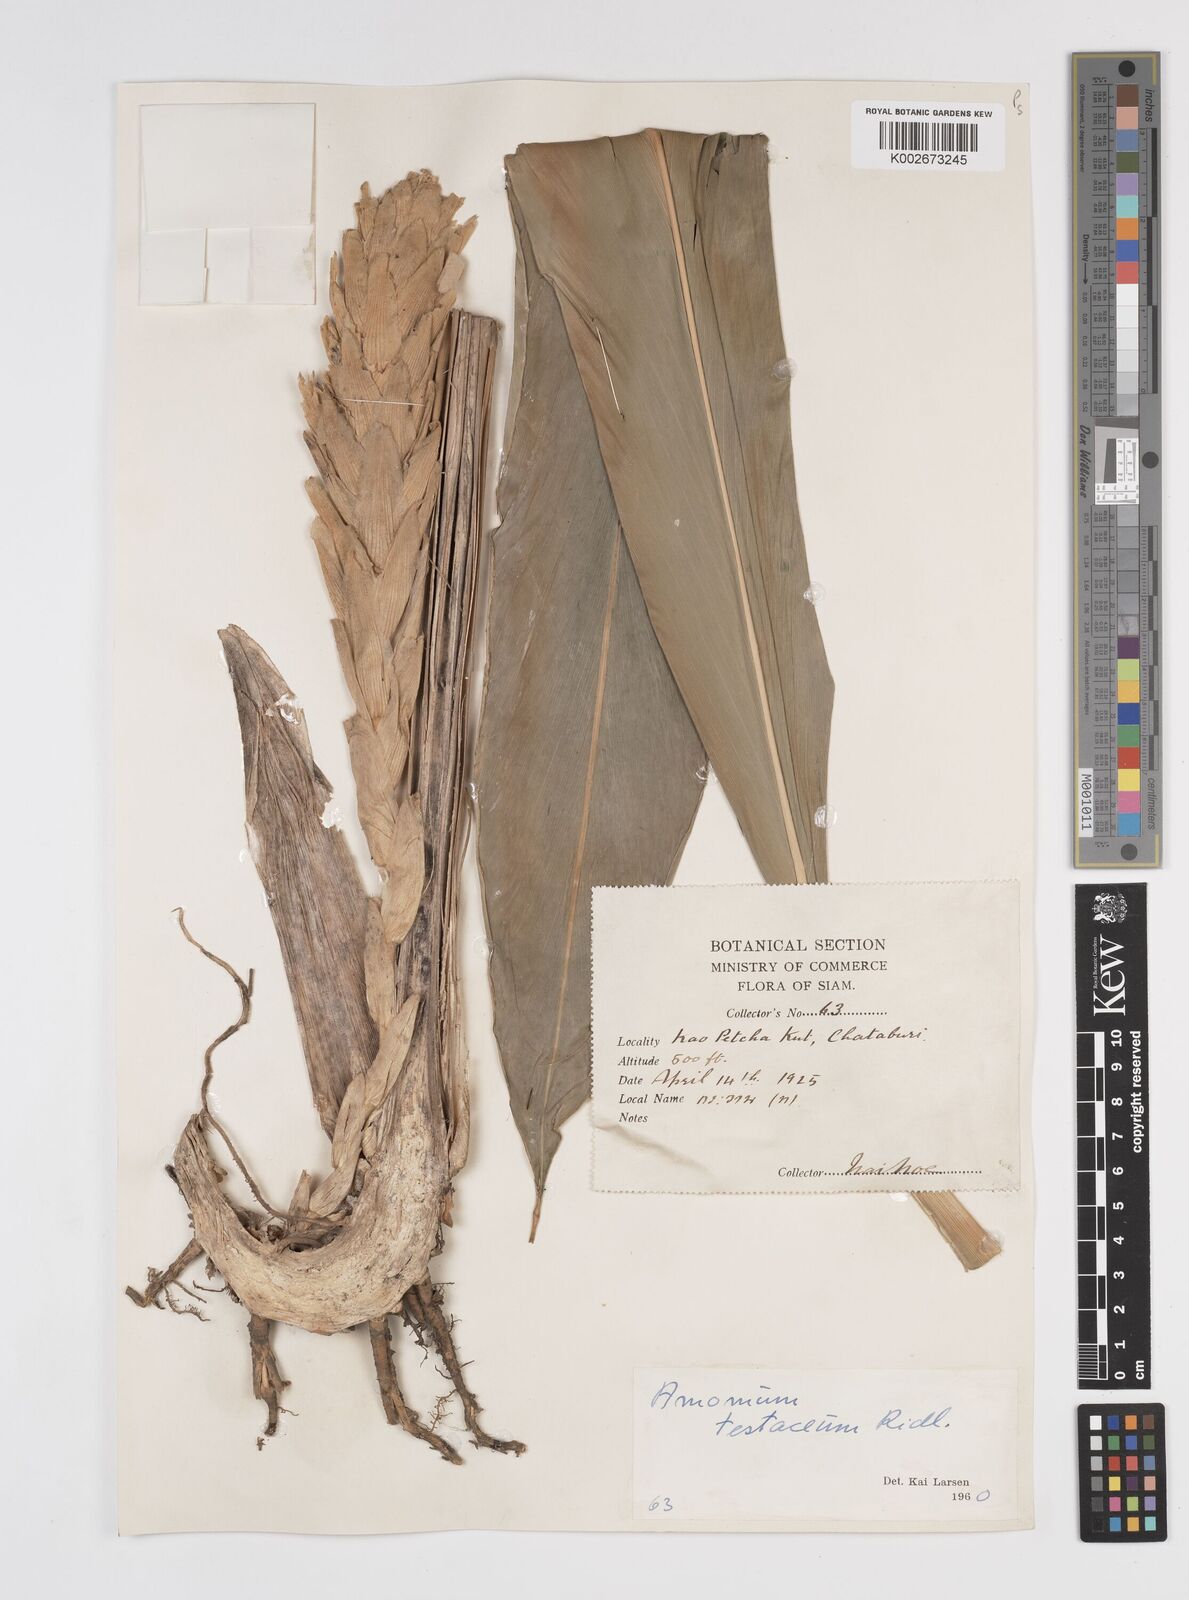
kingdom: Plantae
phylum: Tracheophyta
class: Liliopsida
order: Zingiberales
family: Zingiberaceae
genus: Wurfbainia
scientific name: Wurfbainia testacea
